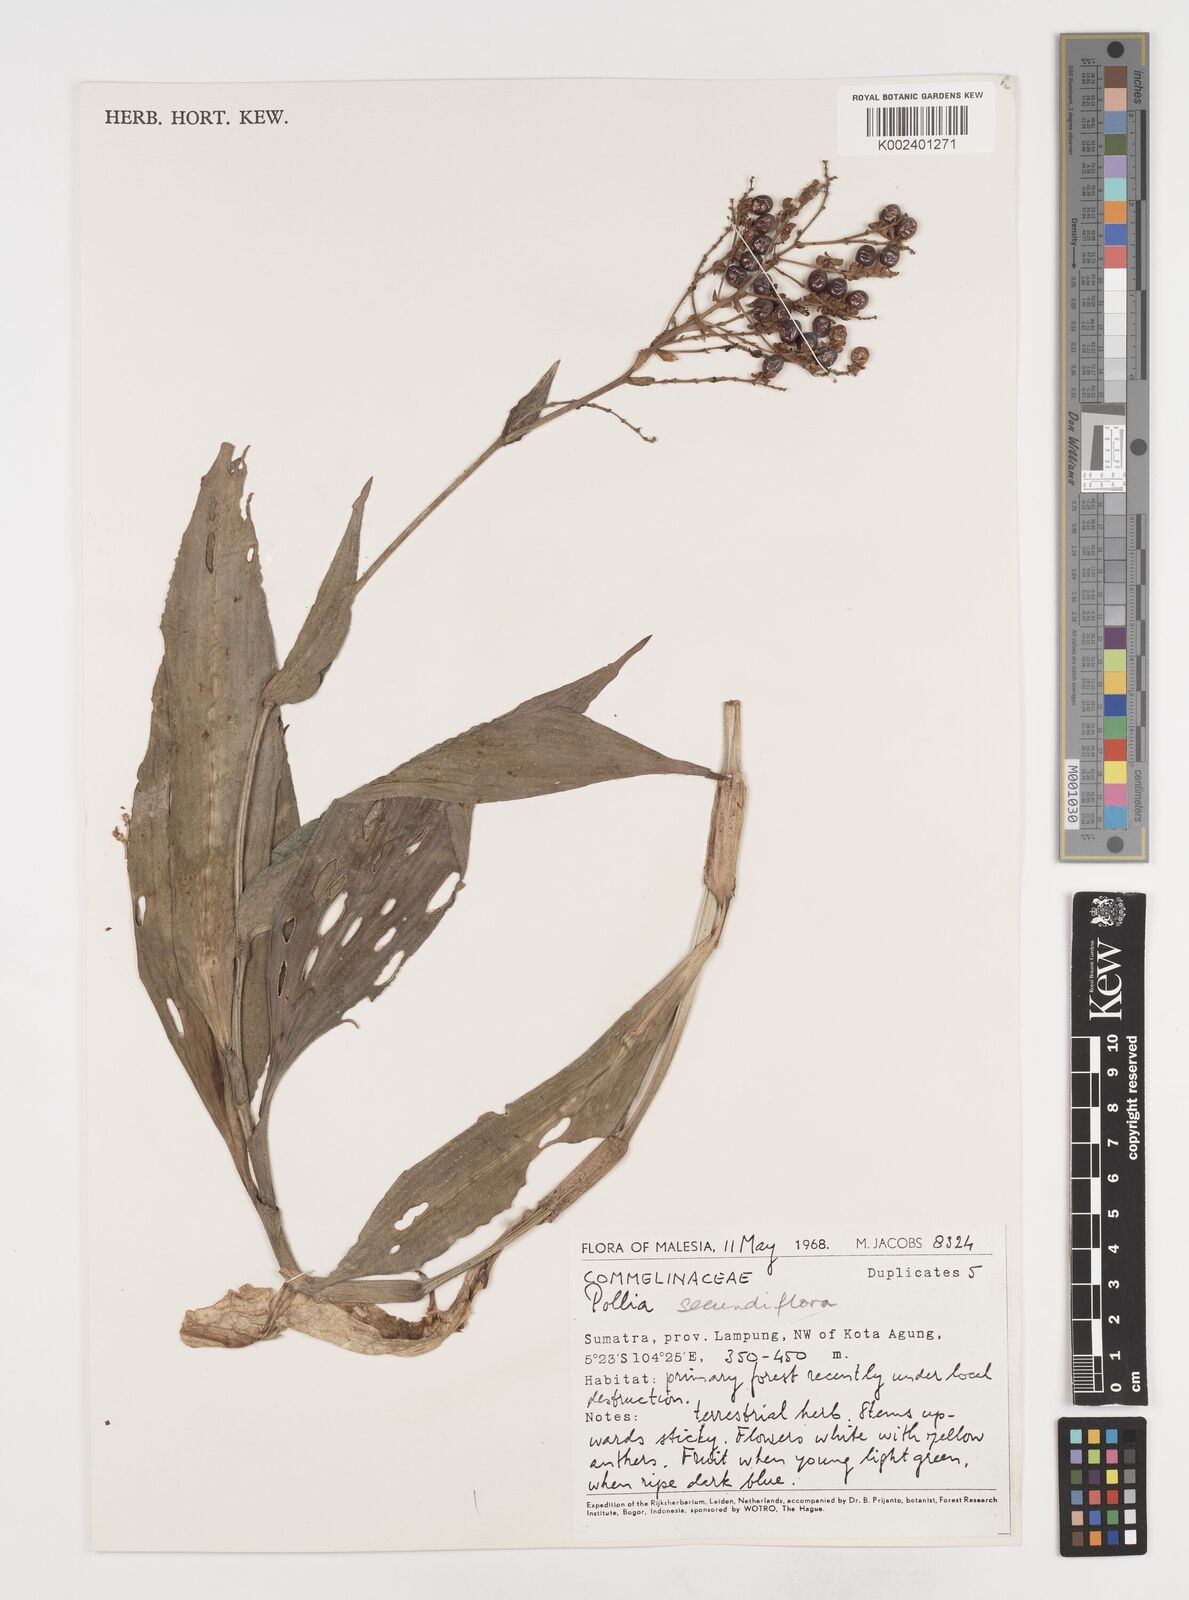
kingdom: Plantae
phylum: Tracheophyta
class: Liliopsida
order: Commelinales
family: Commelinaceae
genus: Pollia
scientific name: Pollia secundiflora
